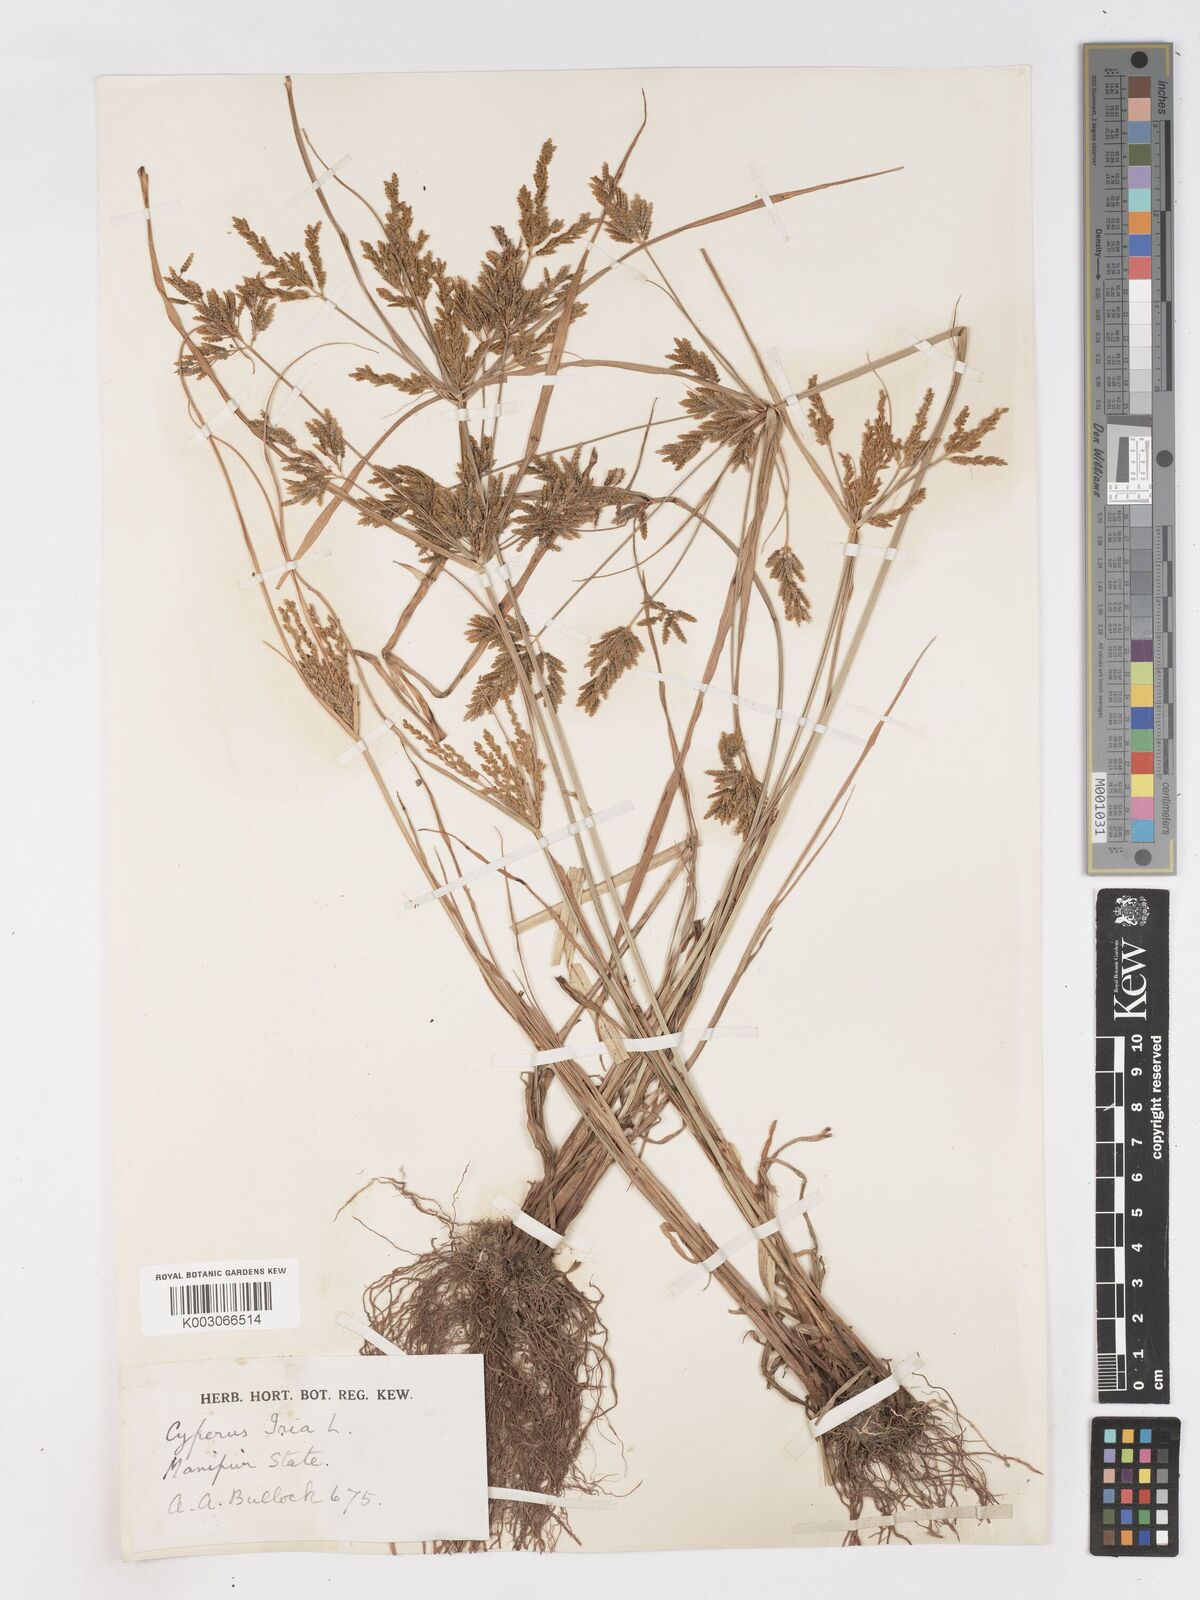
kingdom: Plantae
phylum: Tracheophyta
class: Liliopsida
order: Poales
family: Cyperaceae
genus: Cyperus
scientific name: Cyperus iria
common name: Ricefield flatsedge
